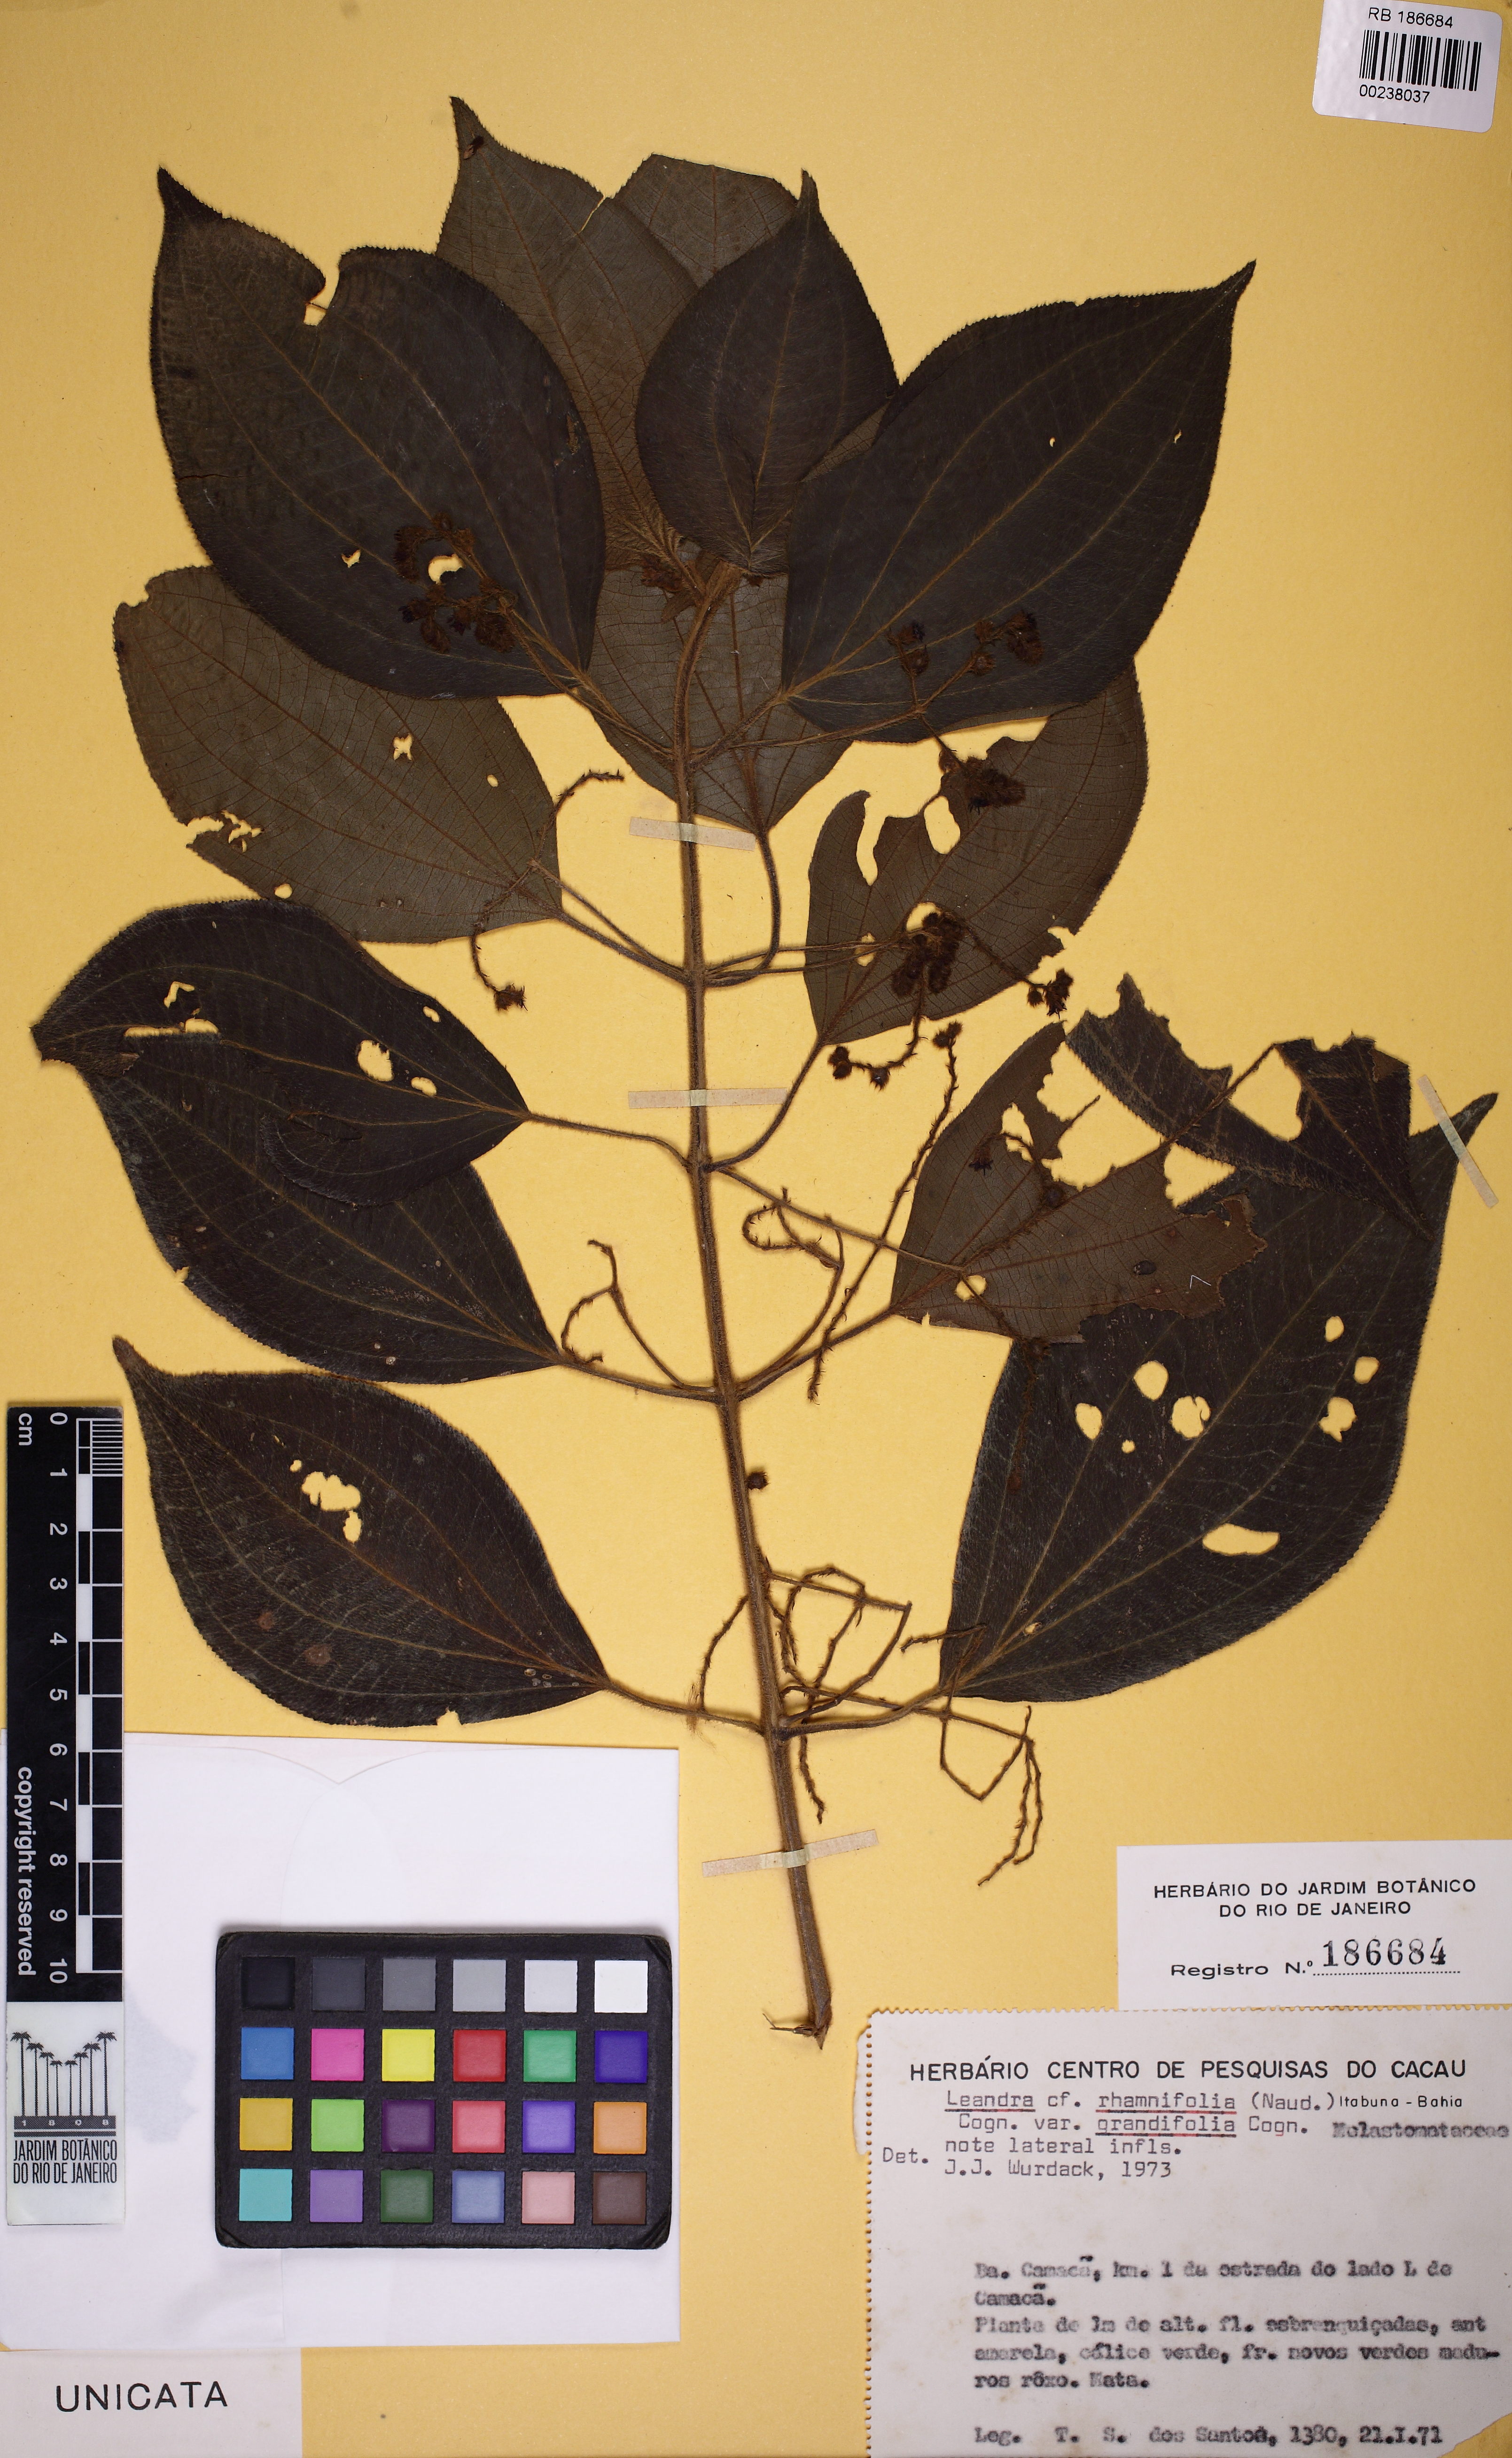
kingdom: Plantae
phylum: Tracheophyta
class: Magnoliopsida
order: Myrtales
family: Melastomataceae
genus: Miconia
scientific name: Miconia rhamnifolia
